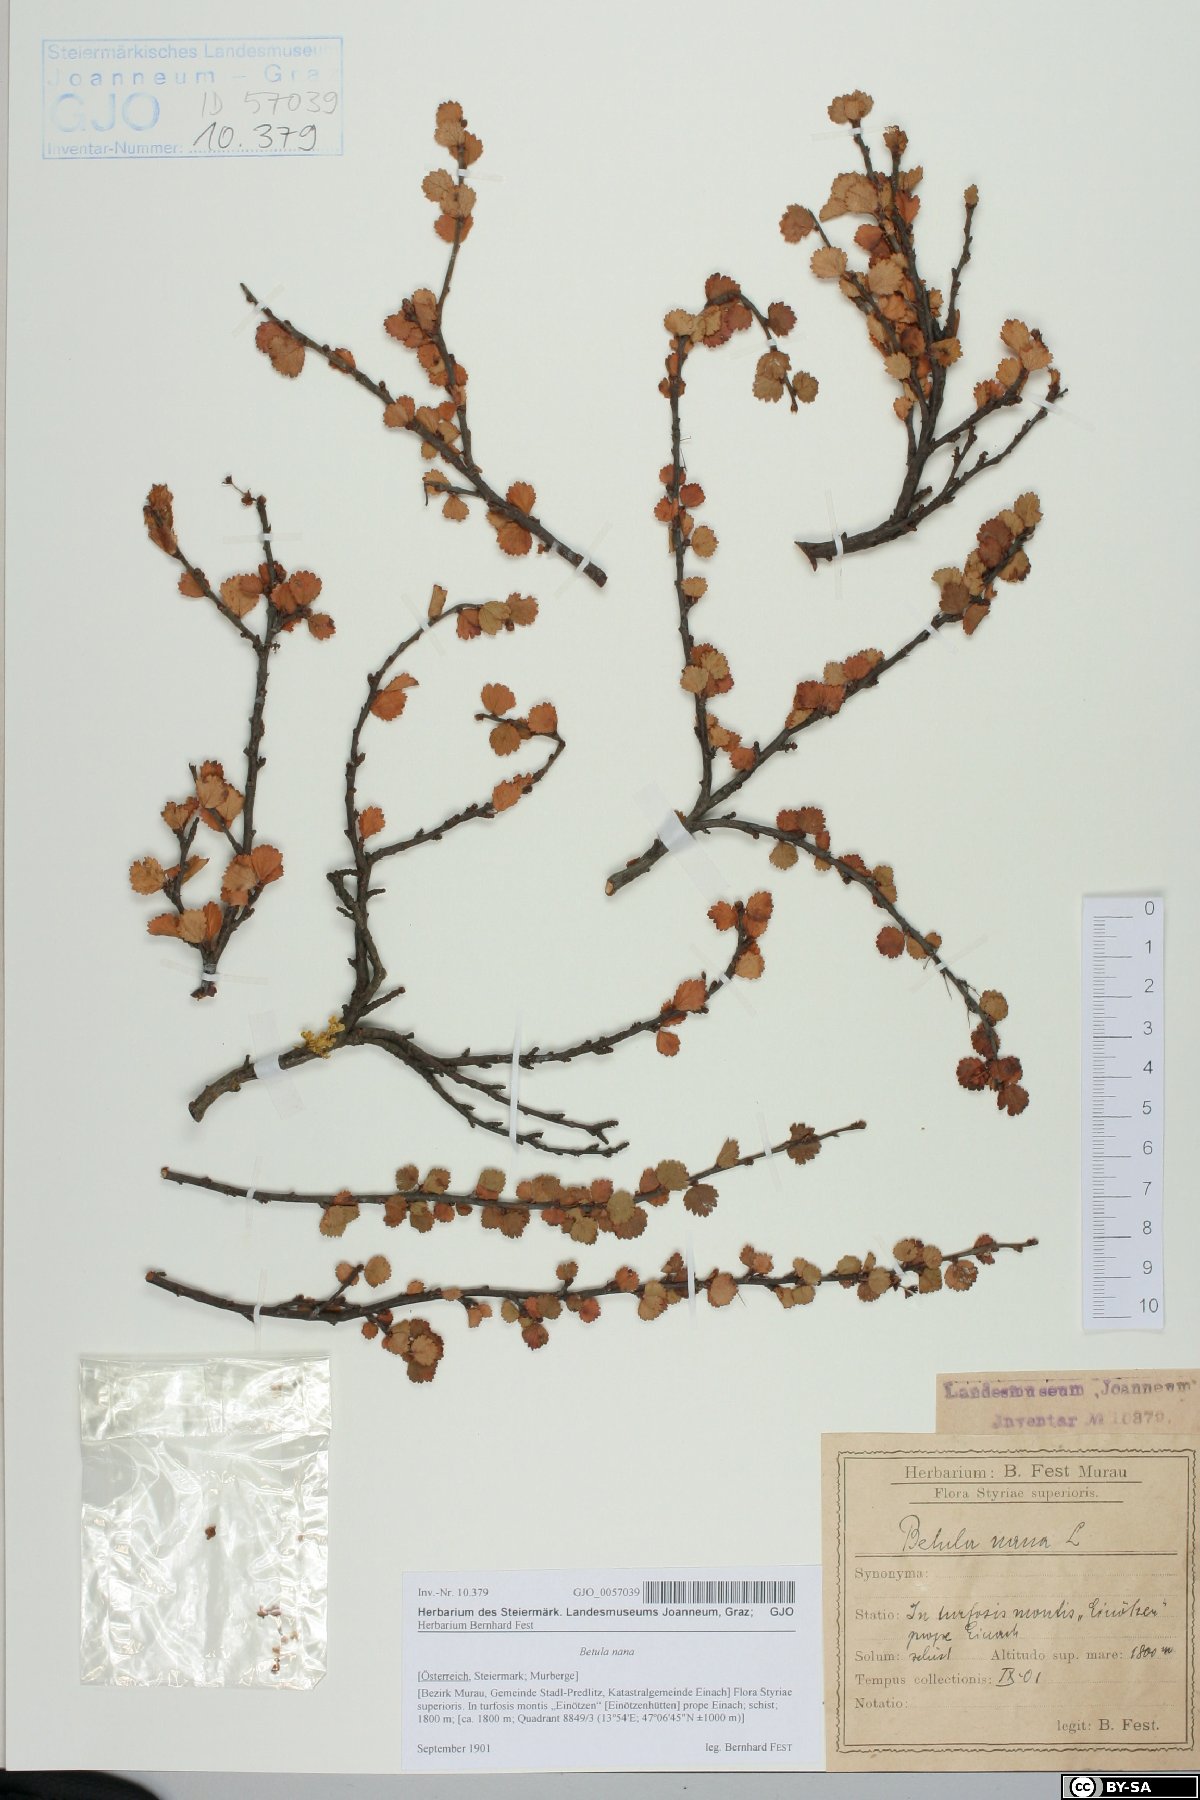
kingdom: Plantae
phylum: Tracheophyta
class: Magnoliopsida
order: Fagales
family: Betulaceae
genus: Betula
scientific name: Betula nana
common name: Arctic dwarf birch
